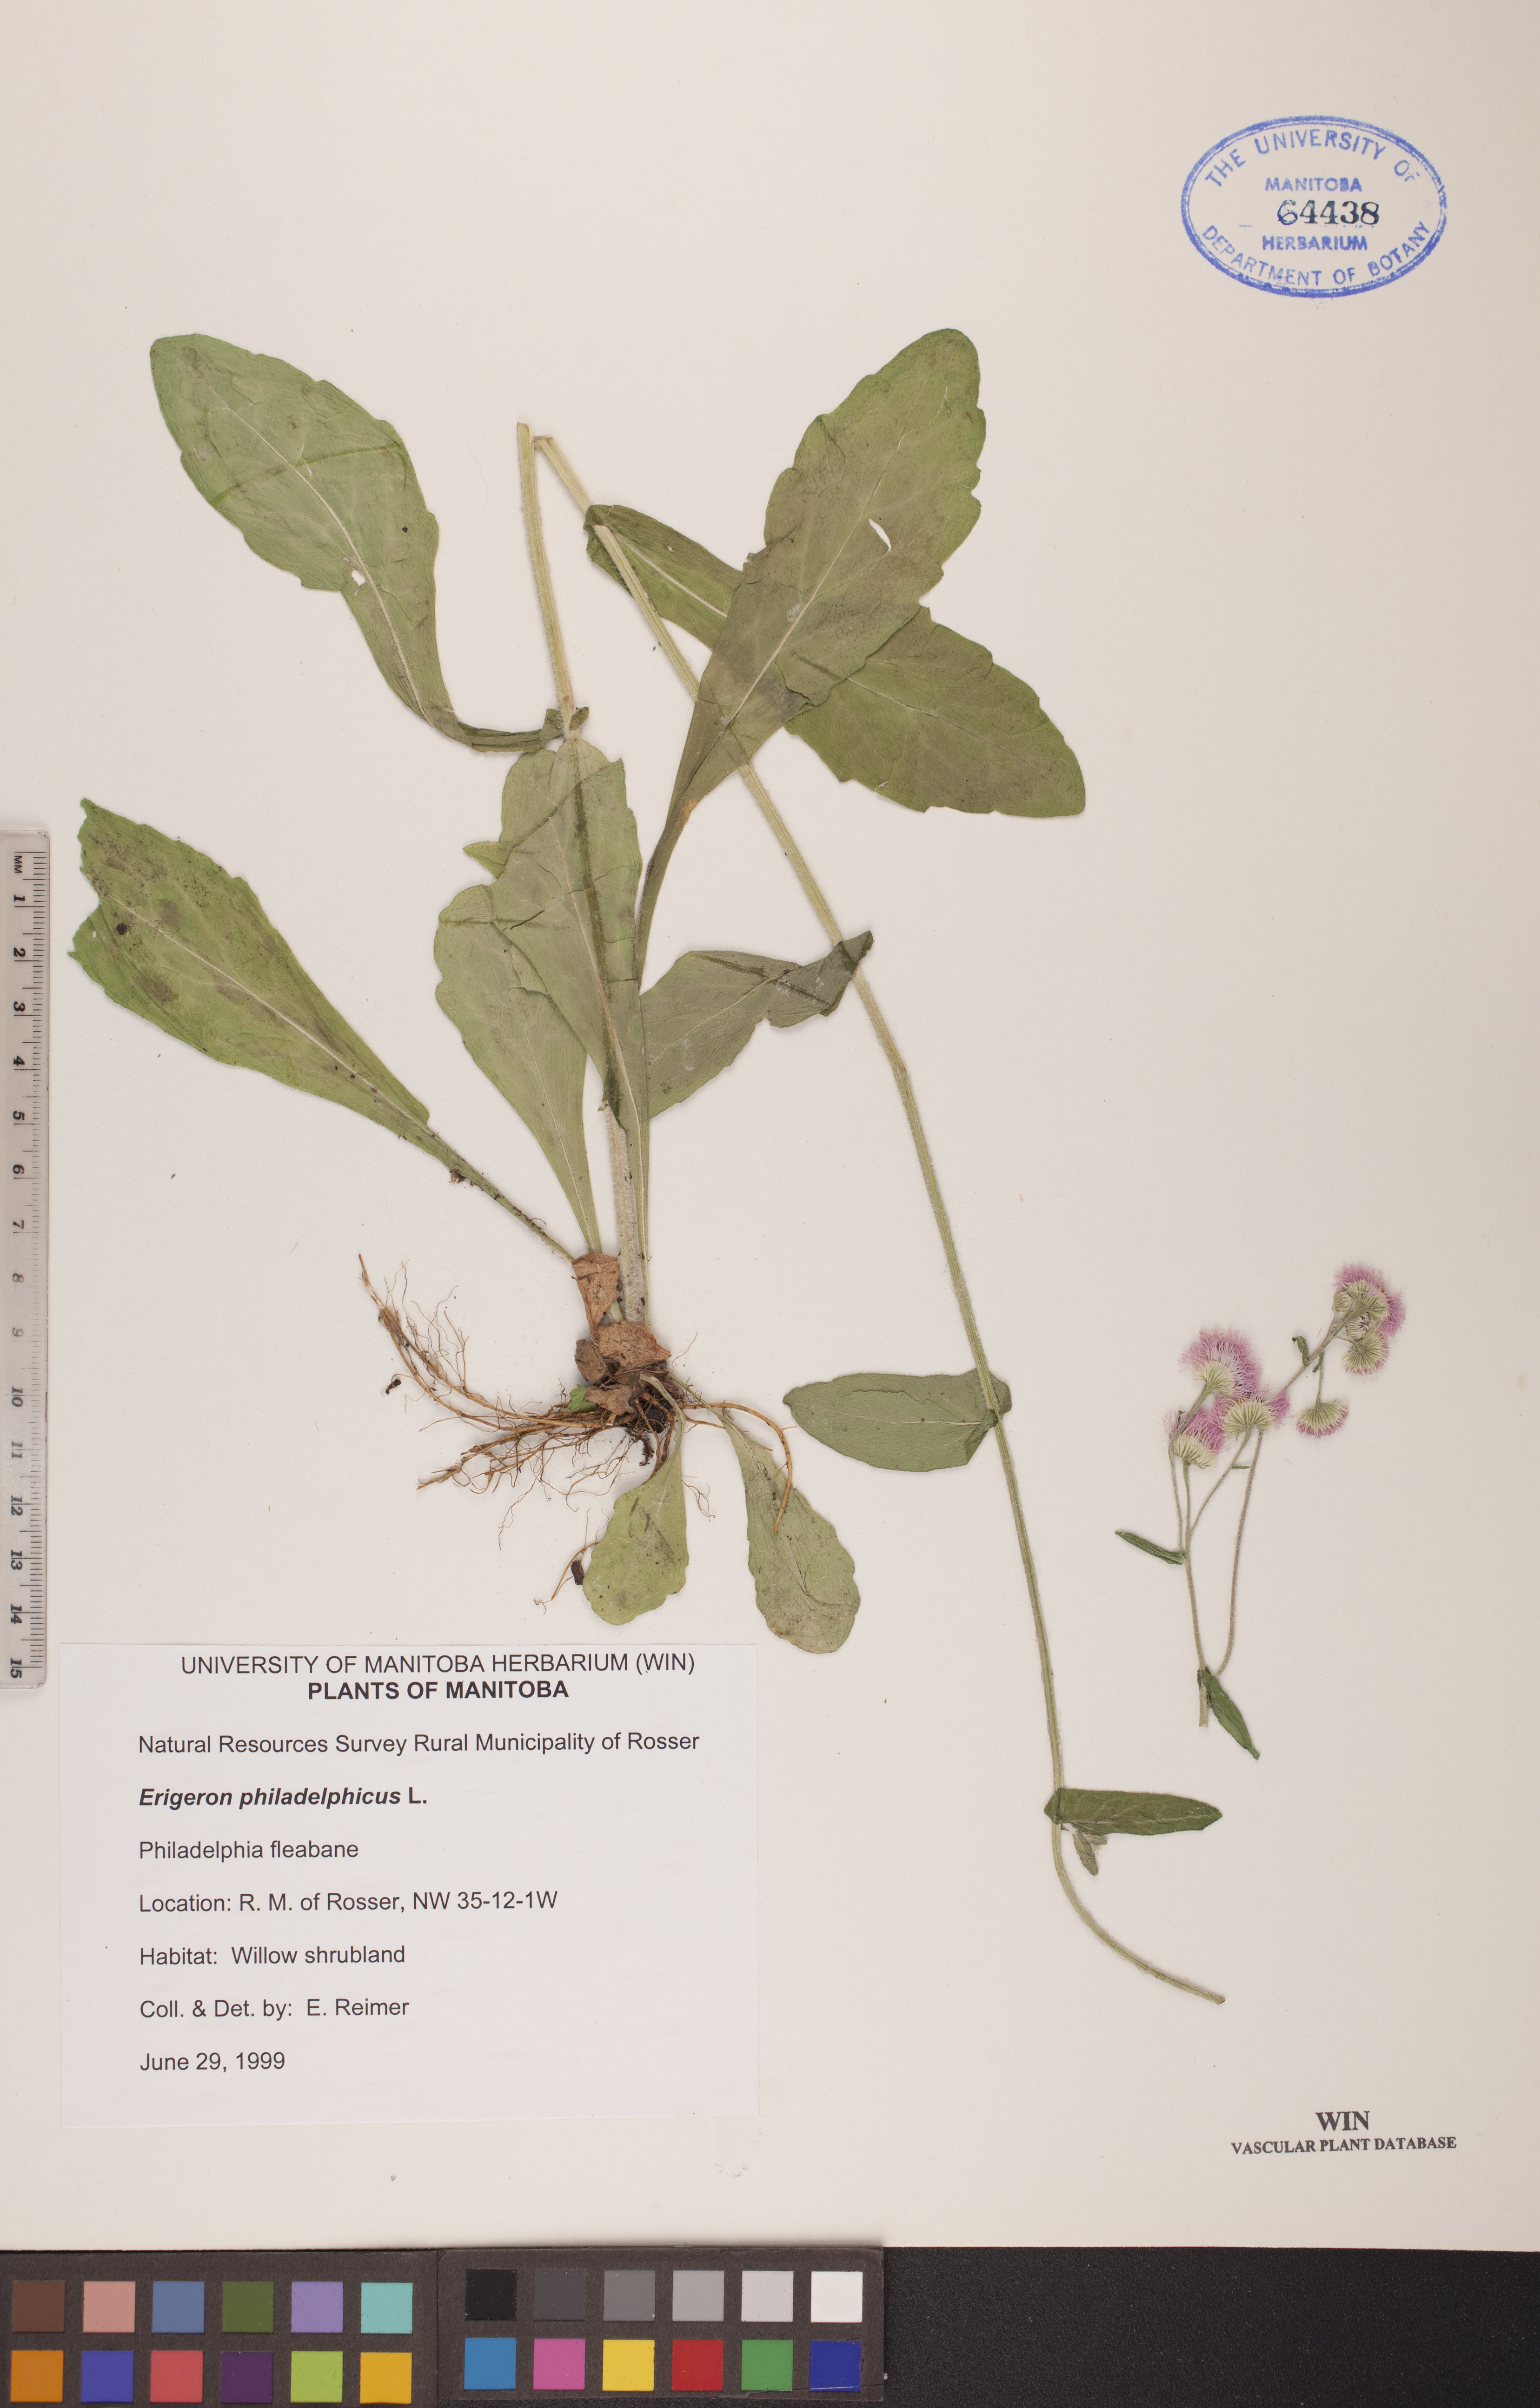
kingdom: Plantae
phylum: Tracheophyta
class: Magnoliopsida
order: Asterales
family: Asteraceae
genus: Erigeron
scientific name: Erigeron philadelphicus
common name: Robin's-plantain
